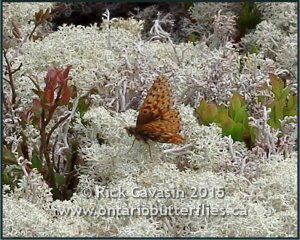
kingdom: Animalia
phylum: Arthropoda
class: Insecta
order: Lepidoptera
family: Nymphalidae
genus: Boloria
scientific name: Boloria freija
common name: Freija Fritillary
